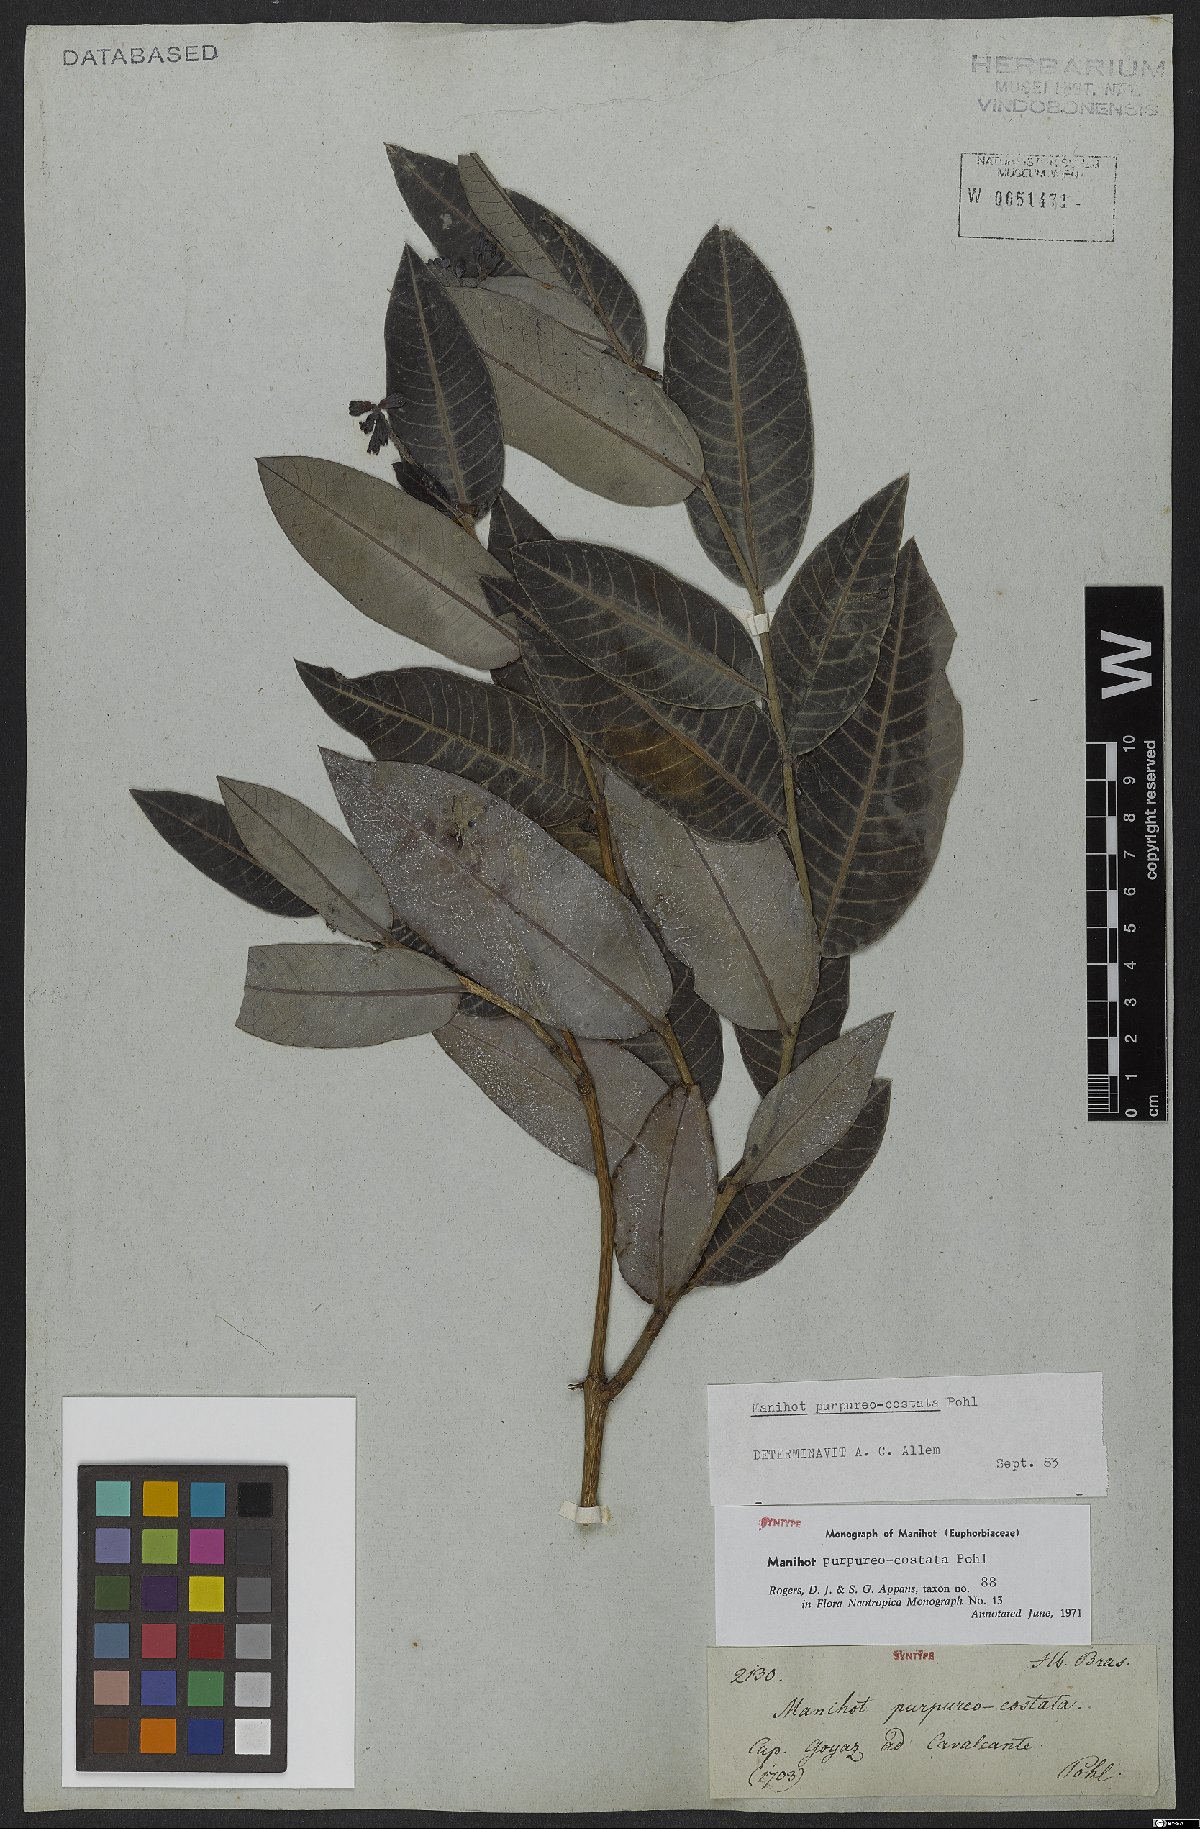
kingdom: Plantae
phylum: Tracheophyta
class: Magnoliopsida
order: Malpighiales
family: Euphorbiaceae
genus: Manihot
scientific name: Manihot purpureocostata
